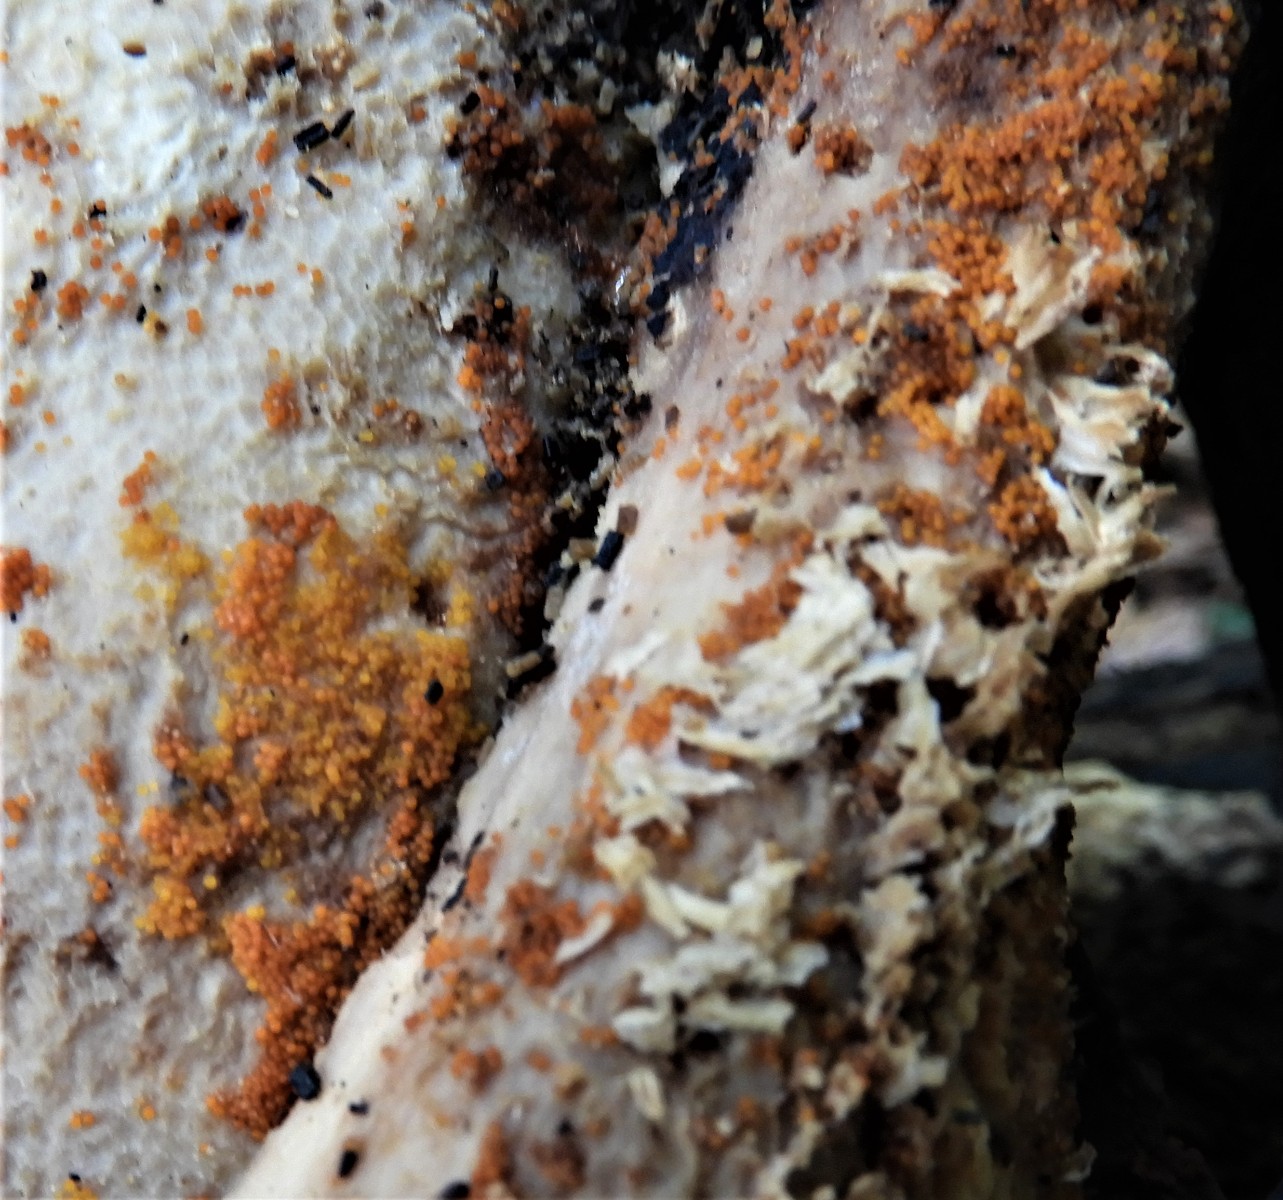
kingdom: Fungi
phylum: Ascomycota
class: Sordariomycetes
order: Hypocreales
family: Nectriaceae
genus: Hydropisphaera
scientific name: Hydropisphaera peziza
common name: skålformet gyldenkerne
